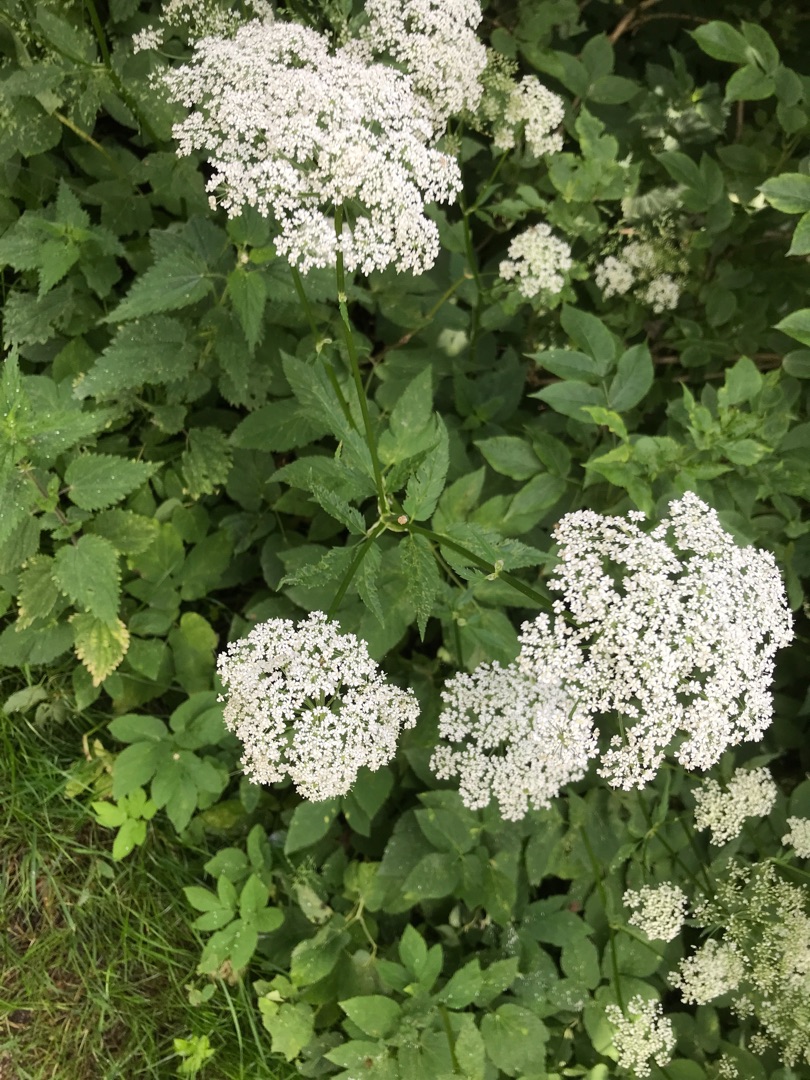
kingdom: Plantae
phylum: Tracheophyta
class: Magnoliopsida
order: Apiales
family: Apiaceae
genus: Aegopodium
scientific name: Aegopodium podagraria
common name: Skvalderkål
